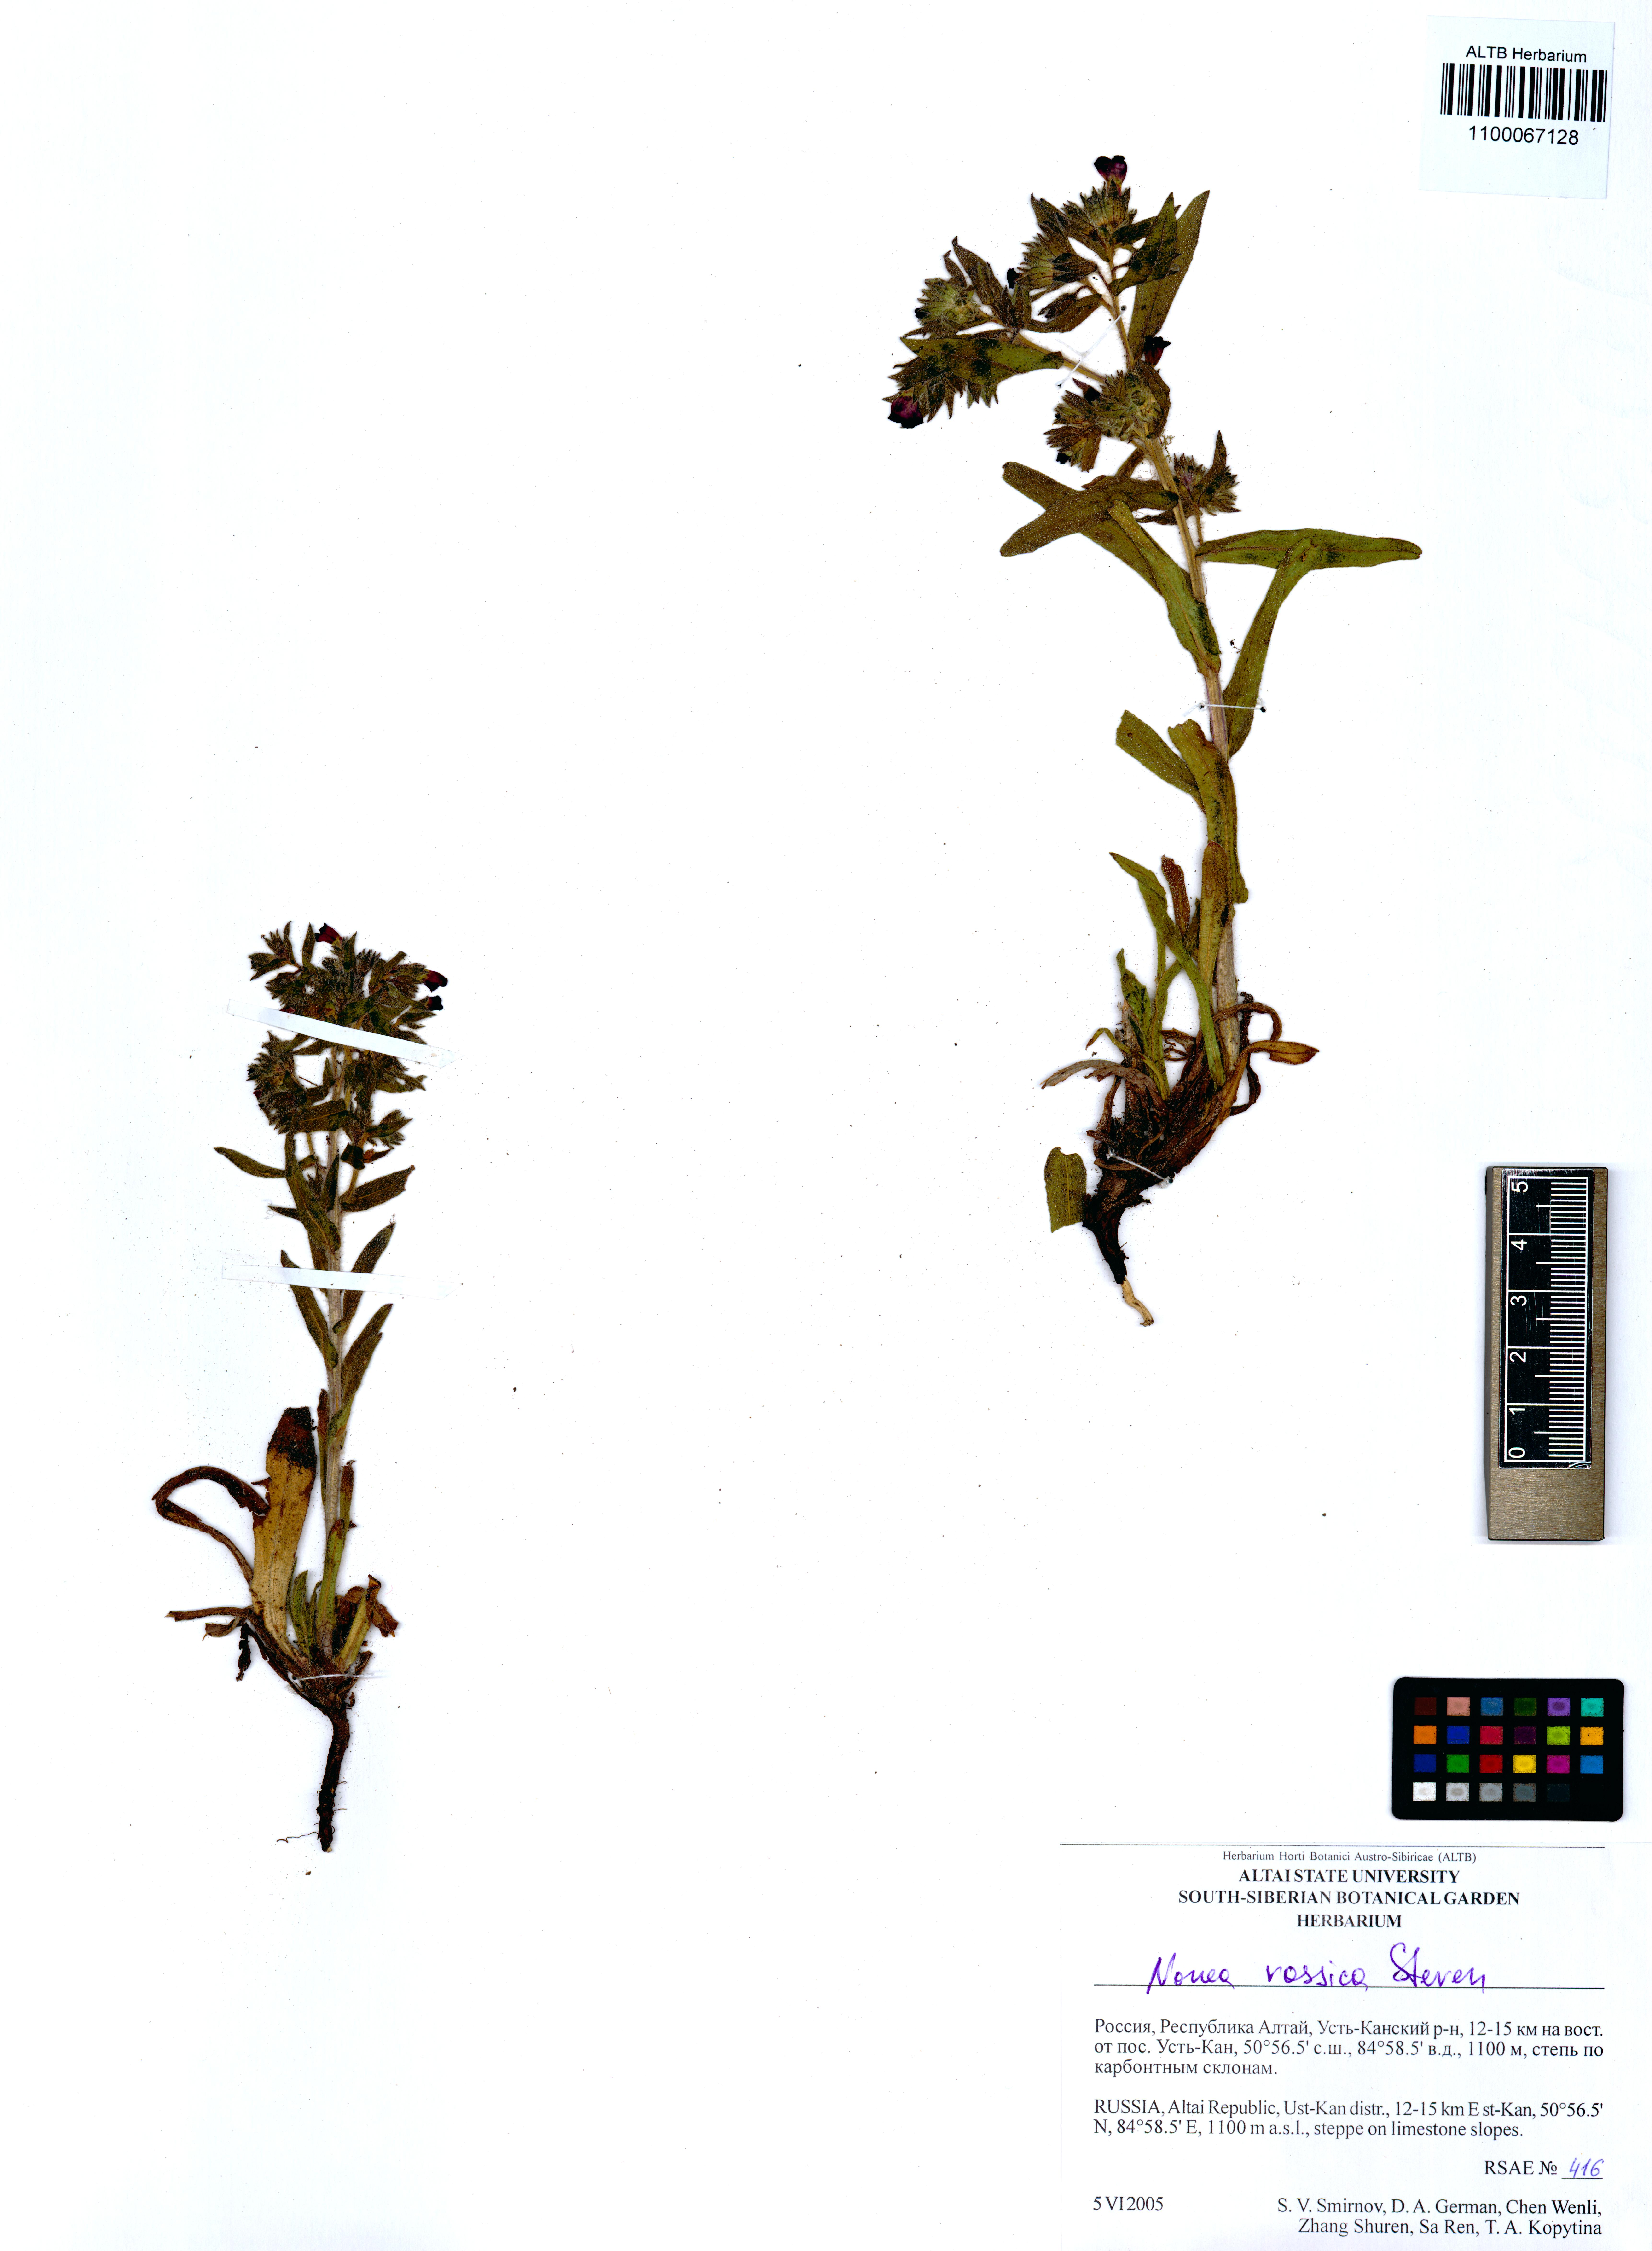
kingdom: Plantae
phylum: Tracheophyta
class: Magnoliopsida
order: Boraginales
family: Boraginaceae
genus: Nonea
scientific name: Nonea pulla
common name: Brown nonea
